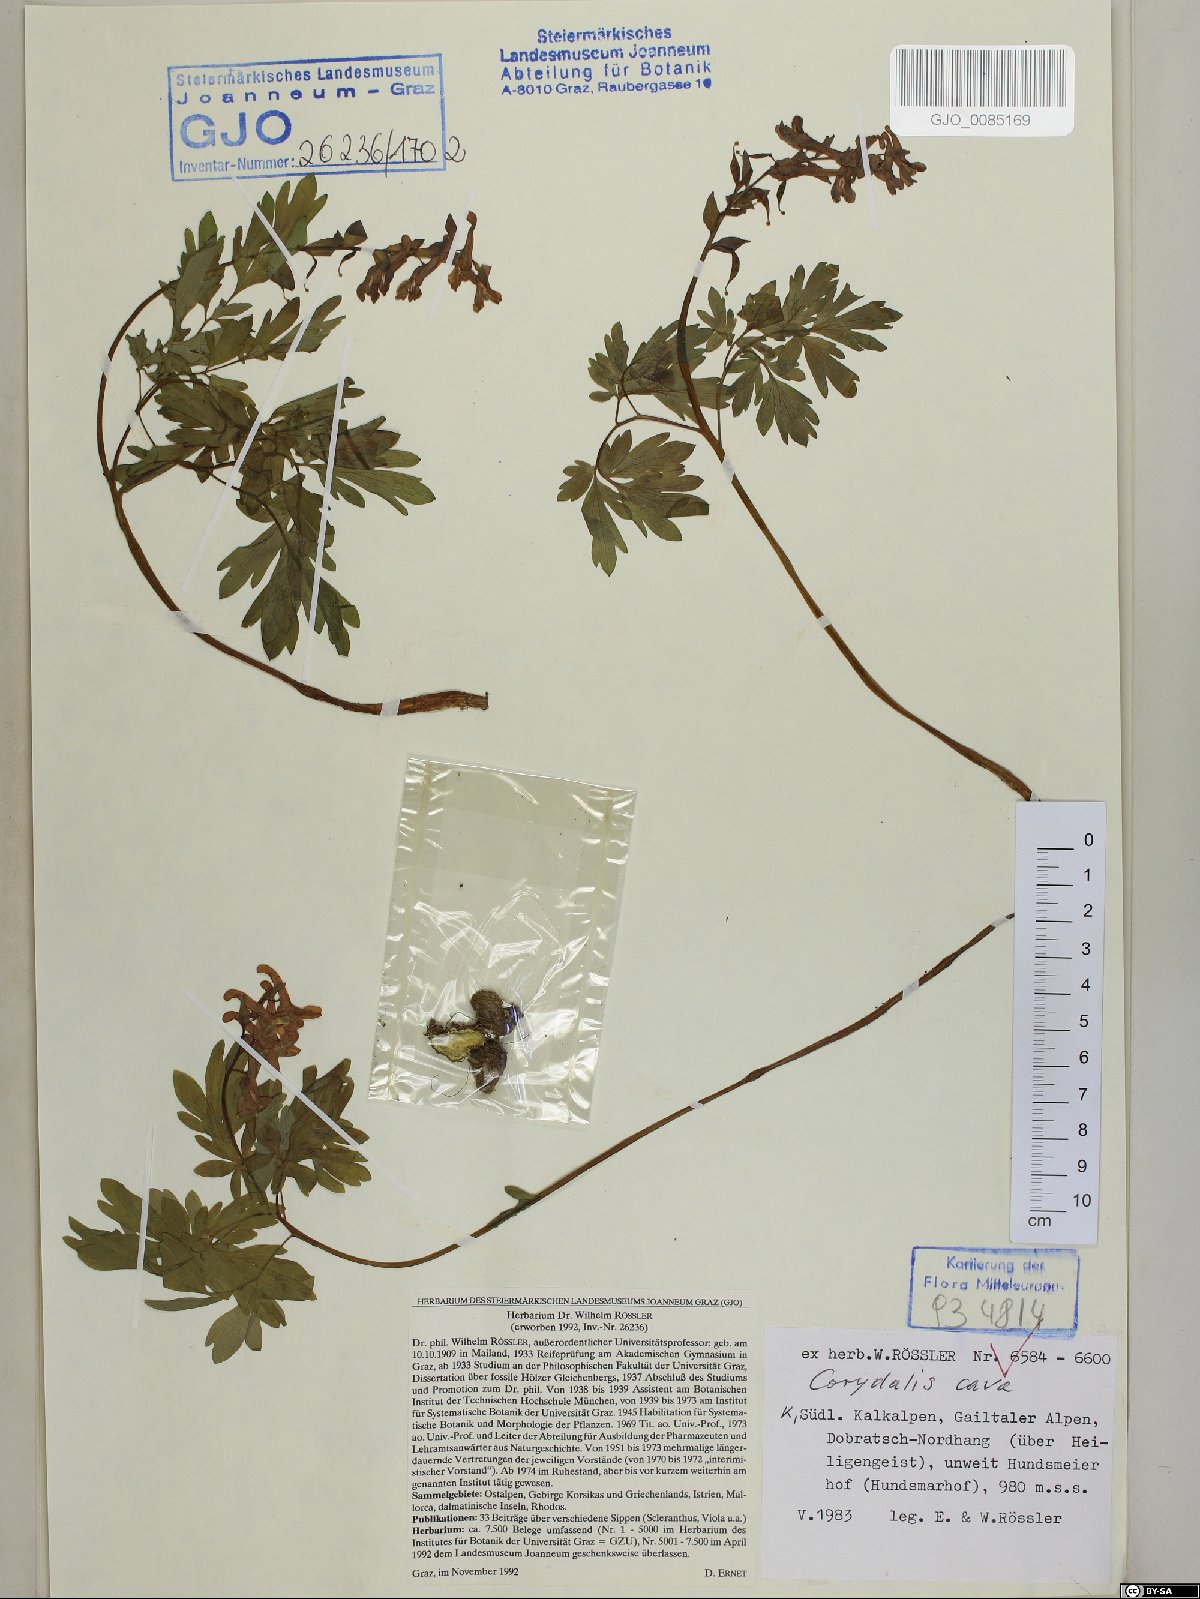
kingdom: Plantae
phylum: Tracheophyta
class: Magnoliopsida
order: Ranunculales
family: Papaveraceae
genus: Corydalis
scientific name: Corydalis cava
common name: Hollowroot
